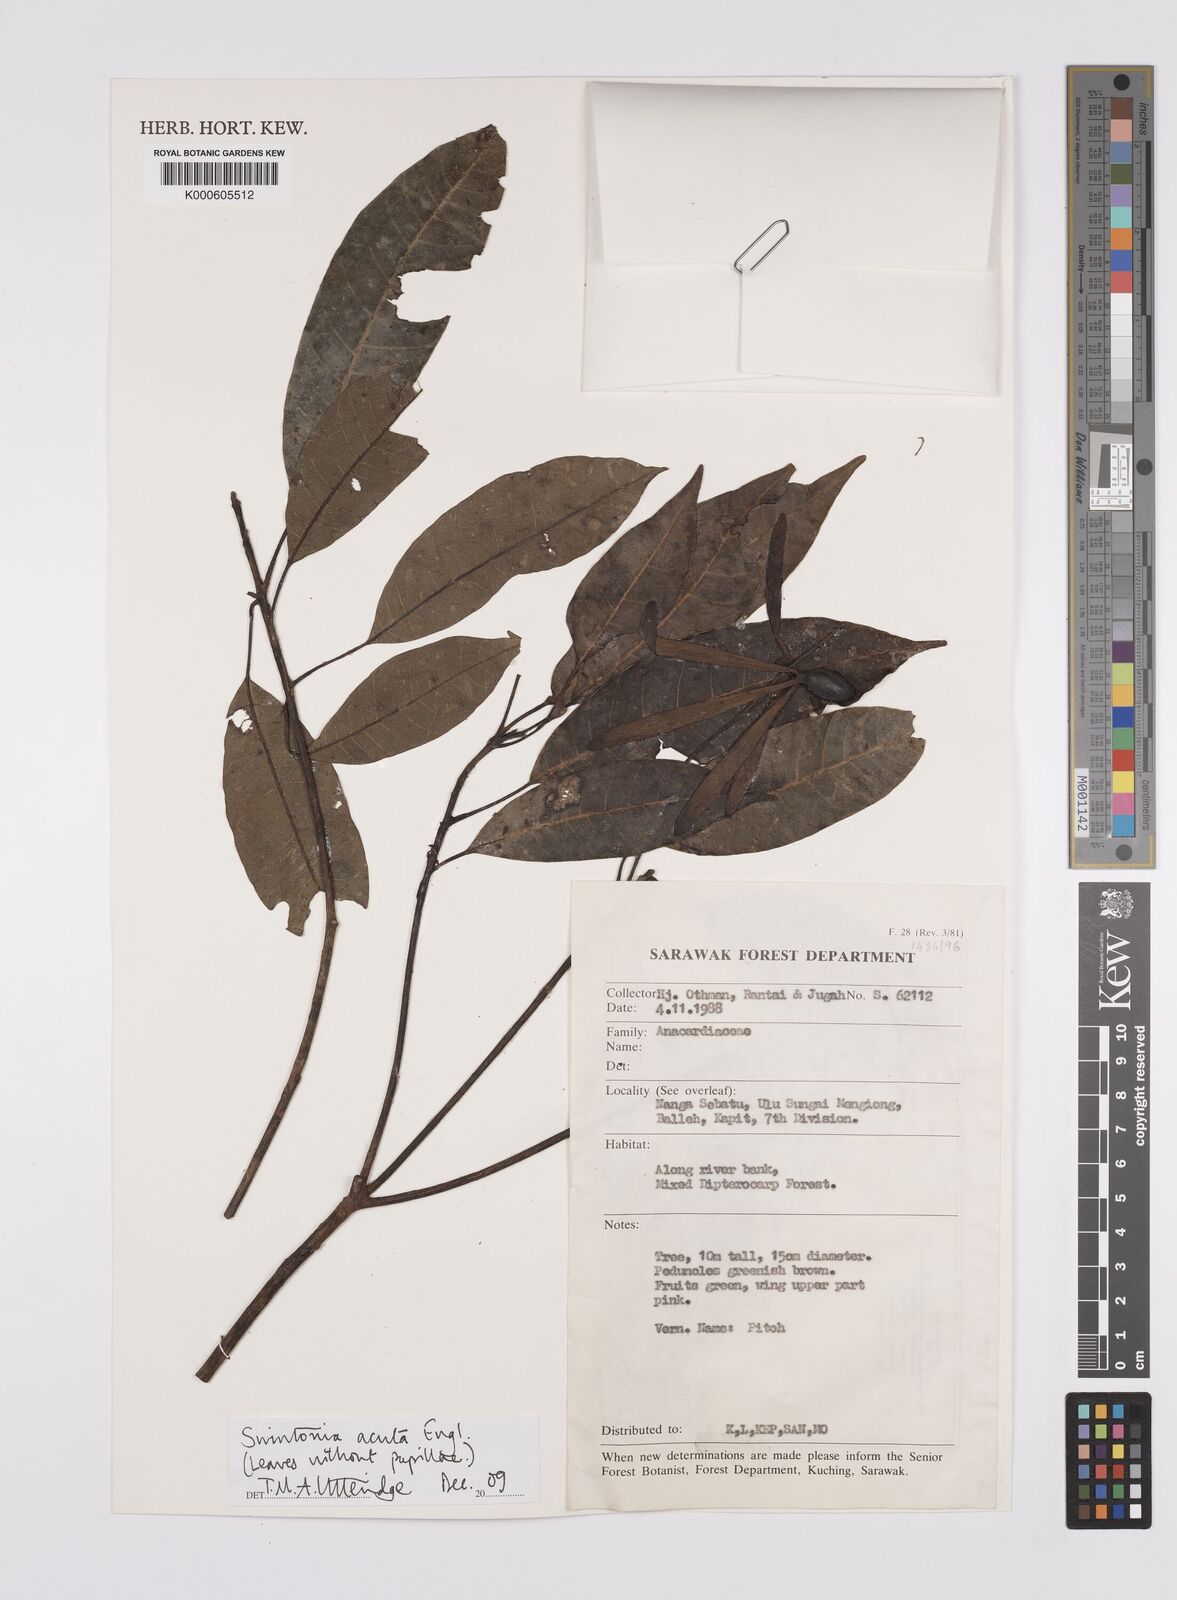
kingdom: Plantae
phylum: Tracheophyta
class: Magnoliopsida
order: Sapindales
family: Anacardiaceae
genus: Swintonia
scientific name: Swintonia acuta
